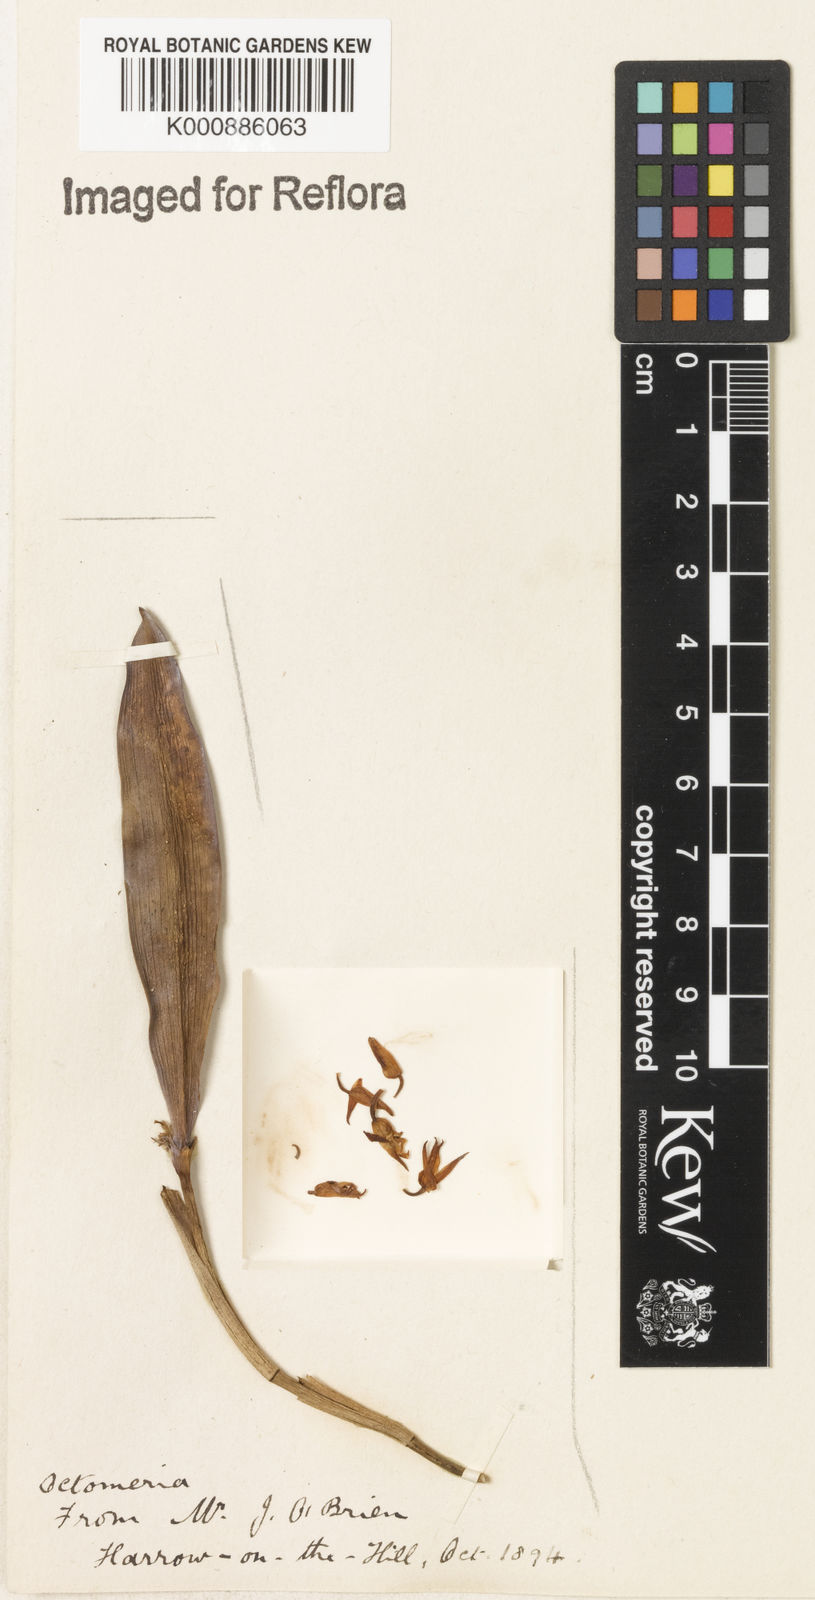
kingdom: Plantae
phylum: Tracheophyta
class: Liliopsida
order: Asparagales
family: Orchidaceae
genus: Octomeria
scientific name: Octomeria
